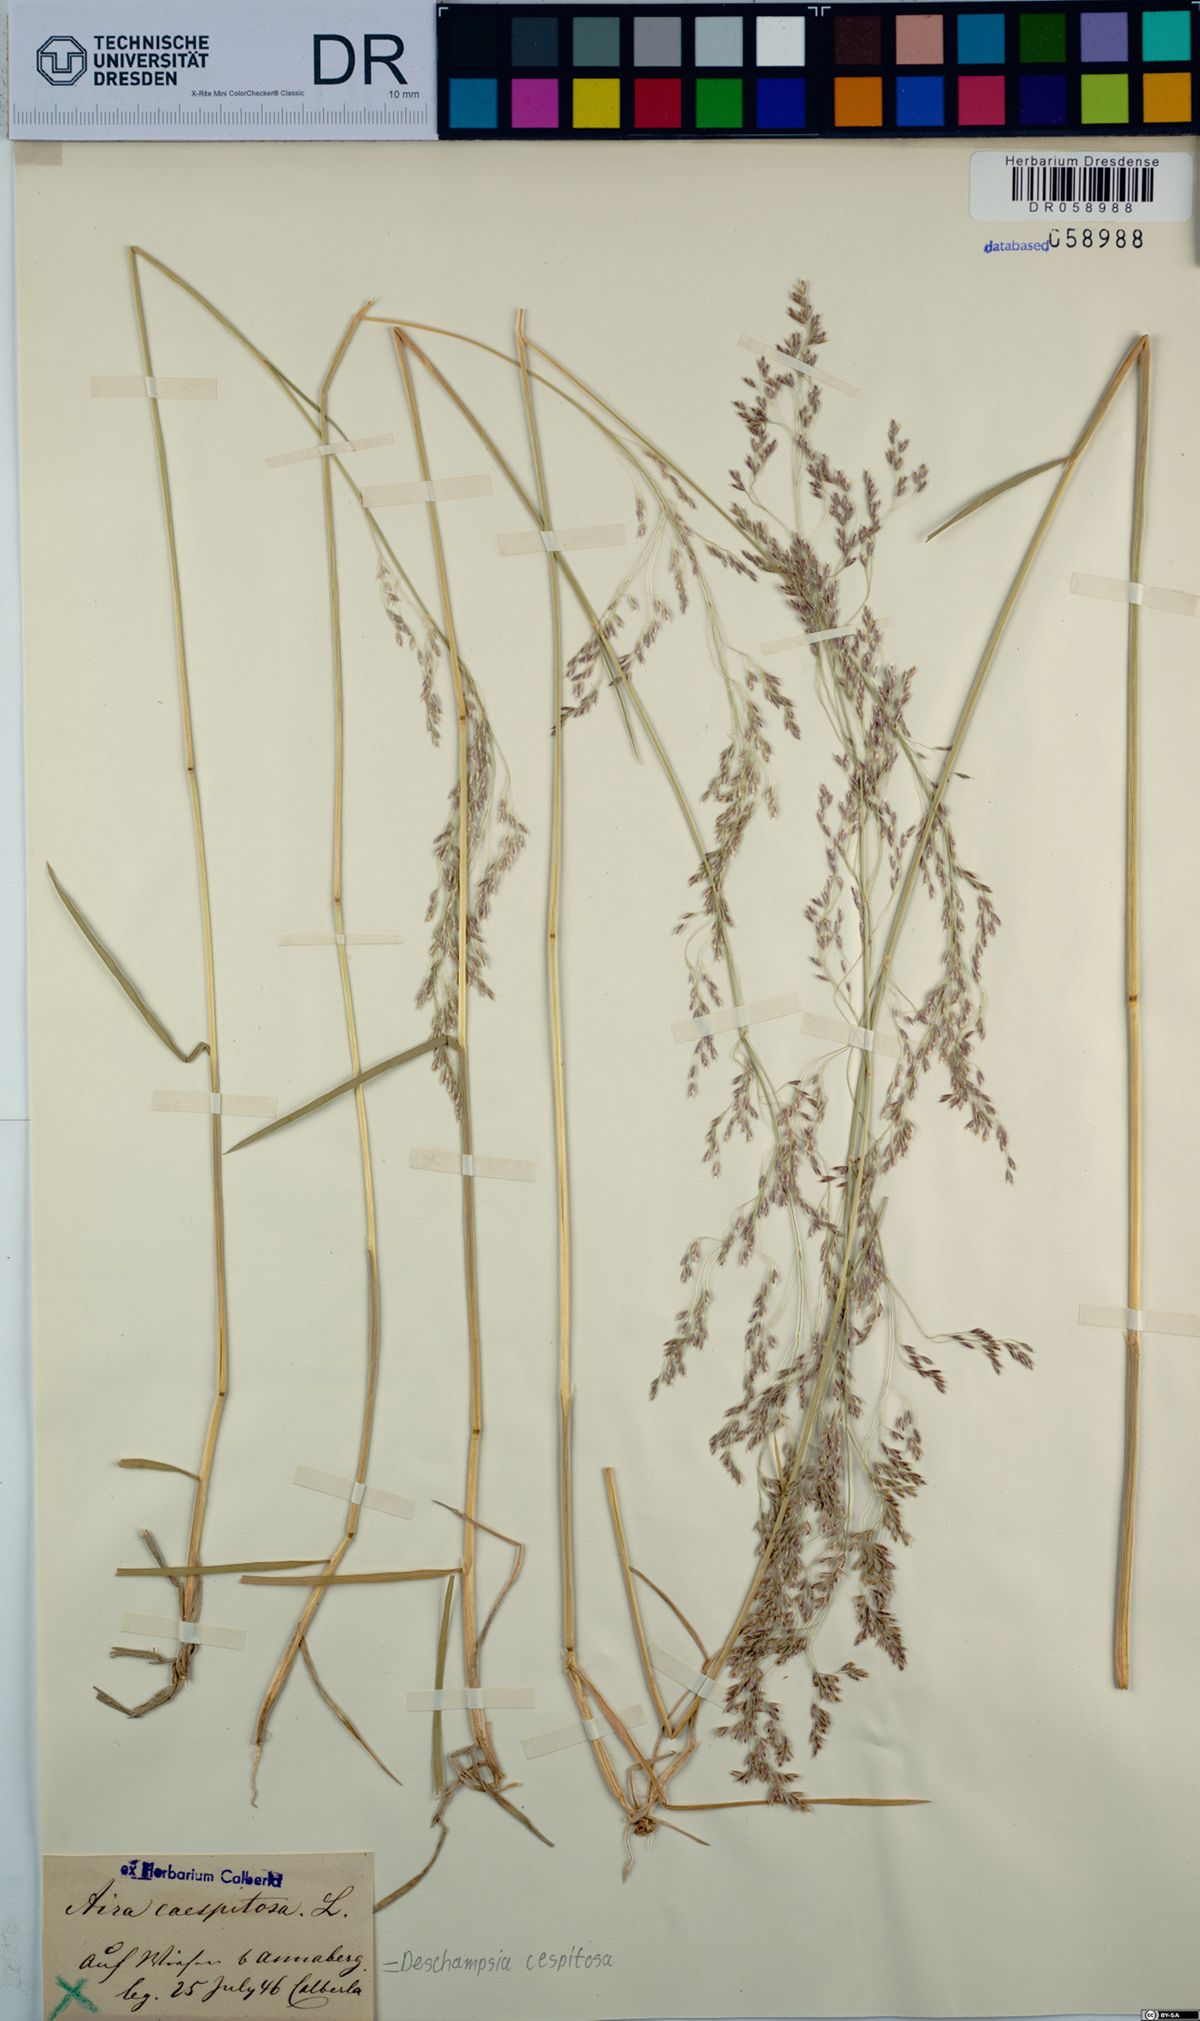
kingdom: Plantae
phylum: Tracheophyta
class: Liliopsida
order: Poales
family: Poaceae
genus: Deschampsia
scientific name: Deschampsia cespitosa
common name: Tufted hair-grass
